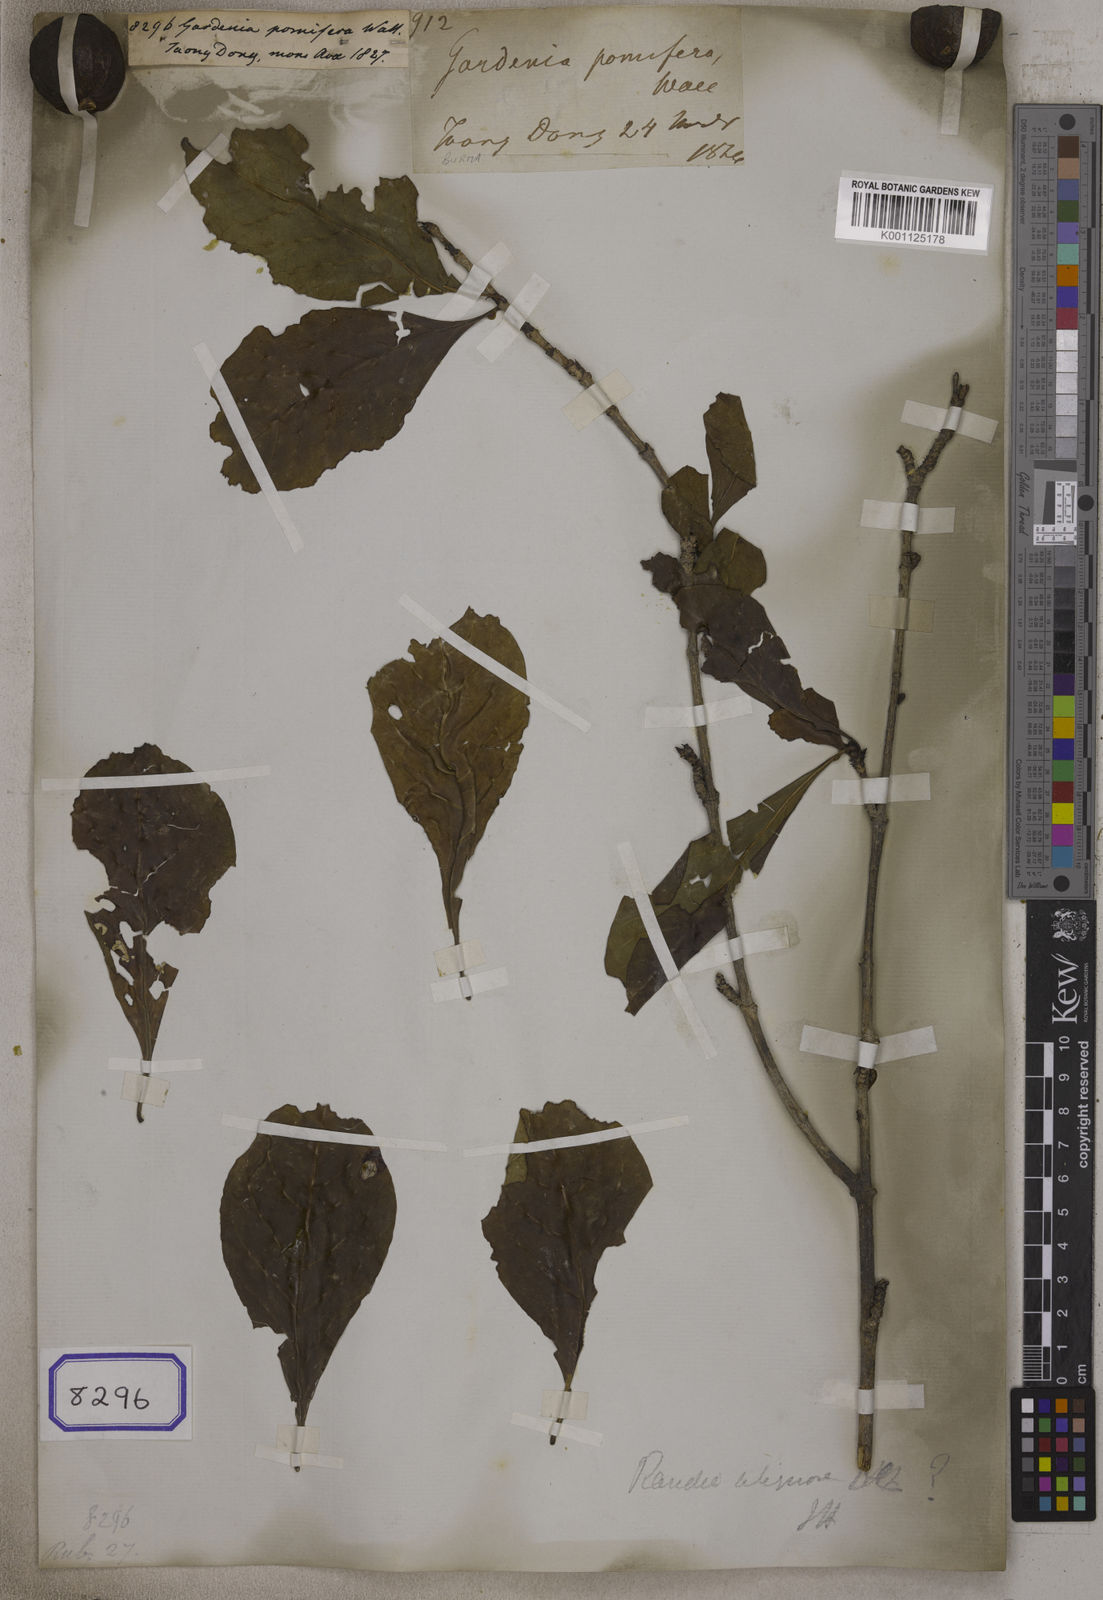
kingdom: Plantae
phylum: Tracheophyta
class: Magnoliopsida
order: Gentianales
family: Rubiaceae
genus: Tamilnadia
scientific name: Tamilnadia uliginosa
